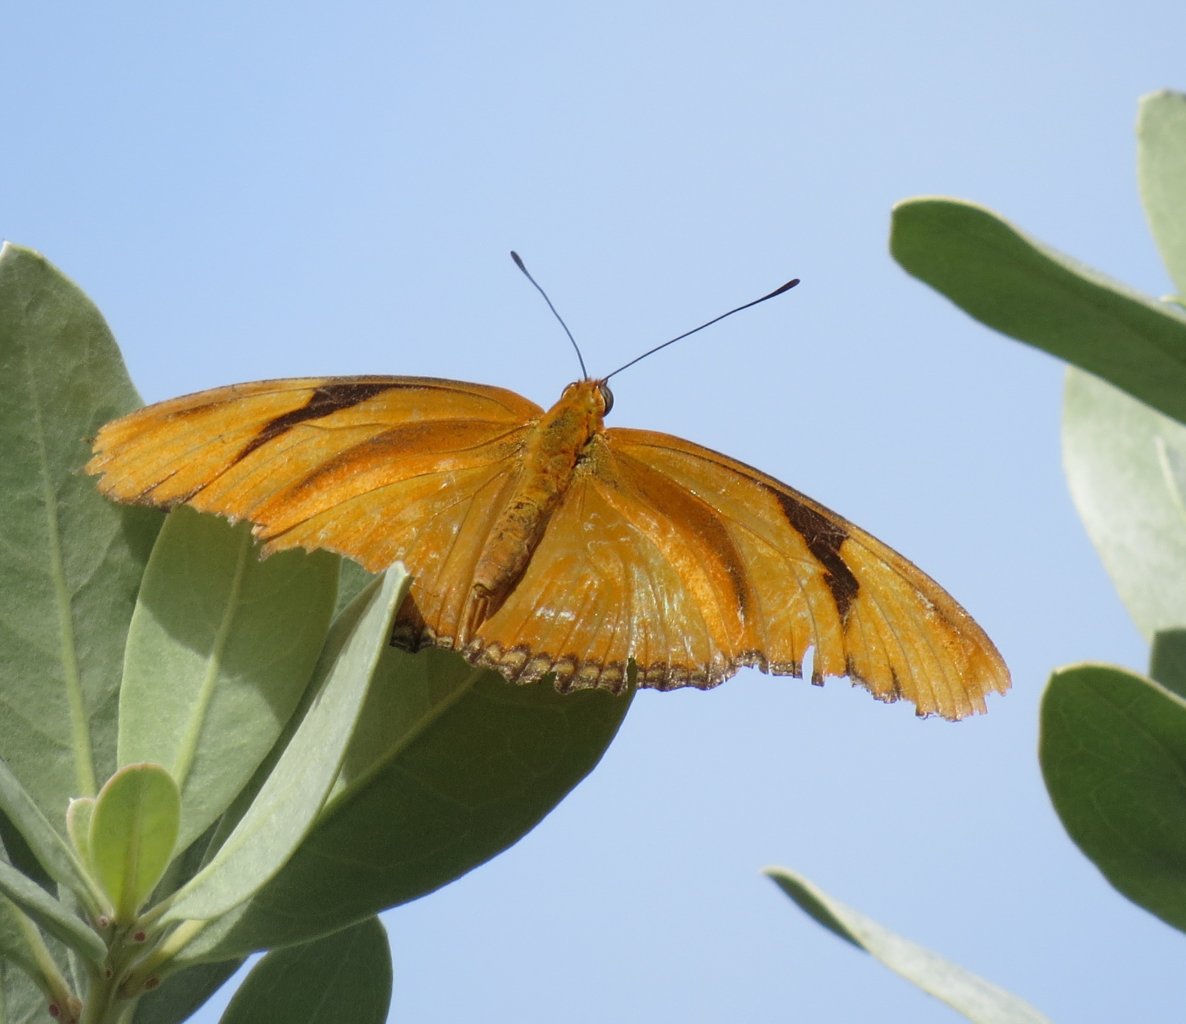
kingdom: Animalia
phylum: Arthropoda
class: Insecta
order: Lepidoptera
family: Nymphalidae
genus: Dryas
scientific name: Dryas iulia
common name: Julia
